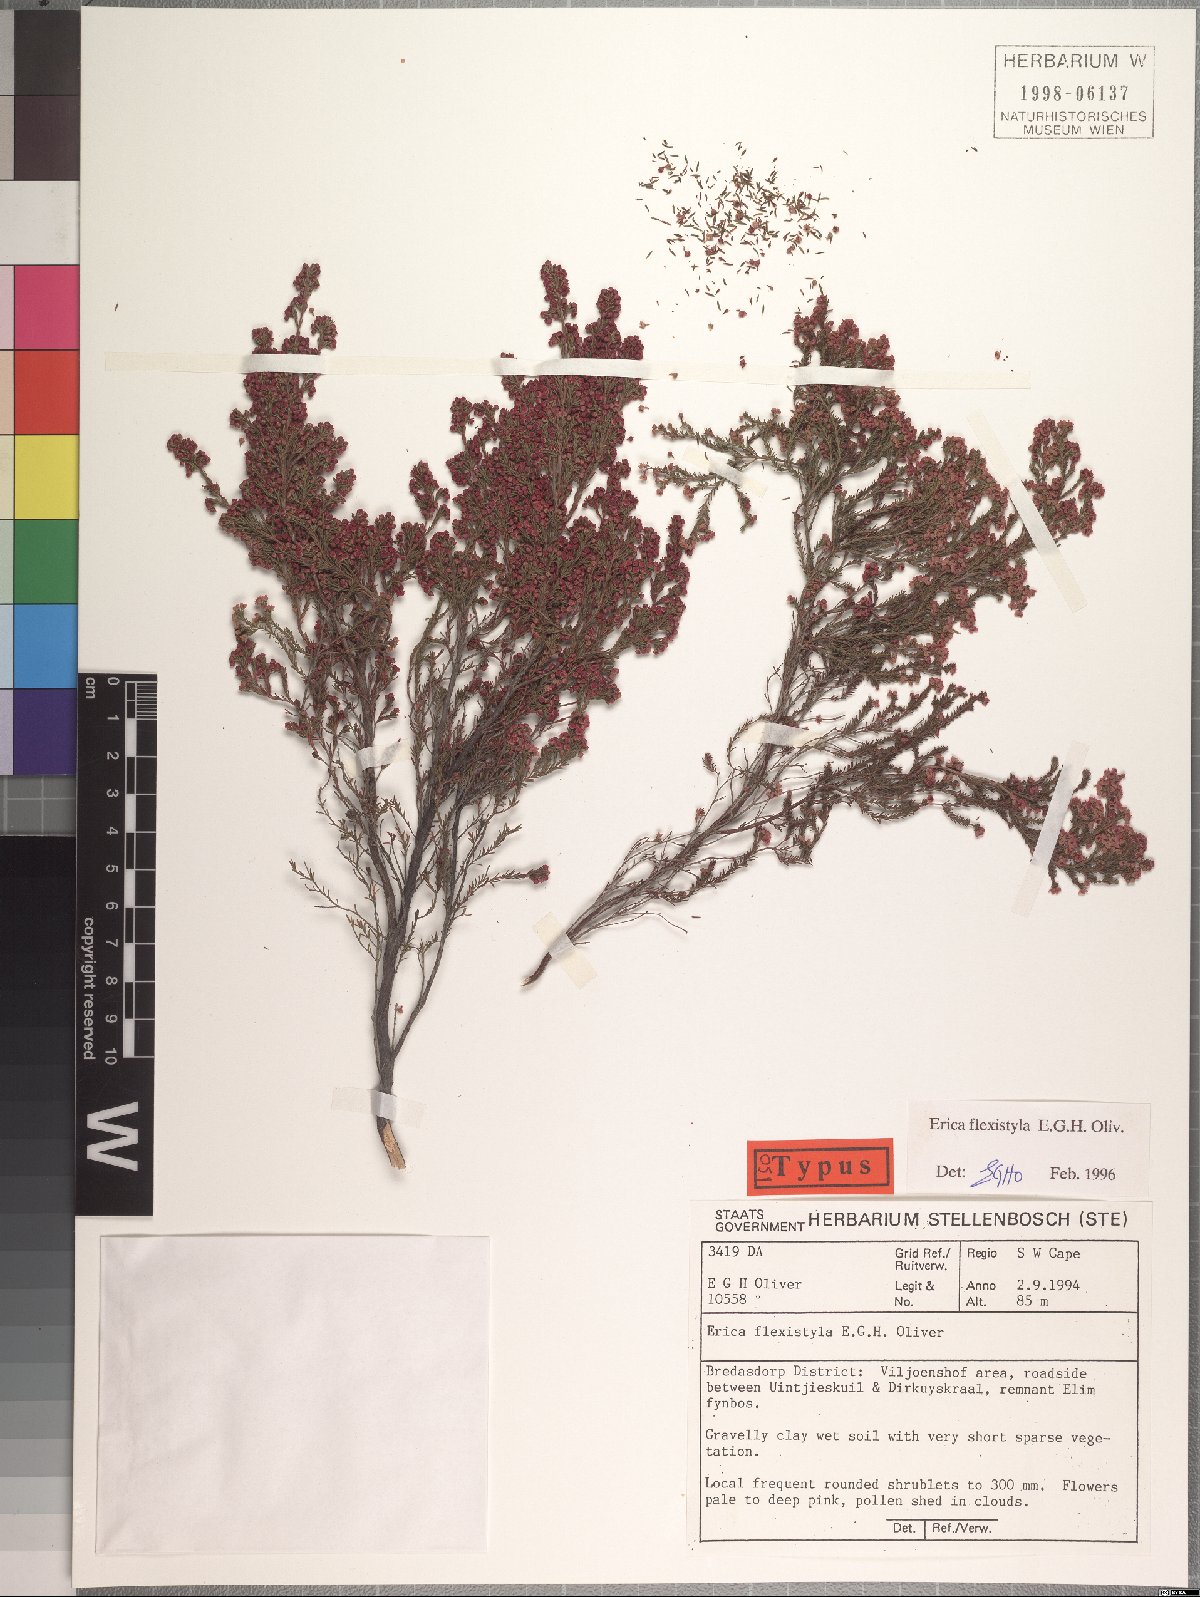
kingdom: Plantae
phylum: Tracheophyta
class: Magnoliopsida
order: Ericales
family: Ericaceae
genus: Erica
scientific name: Erica flexistyla
